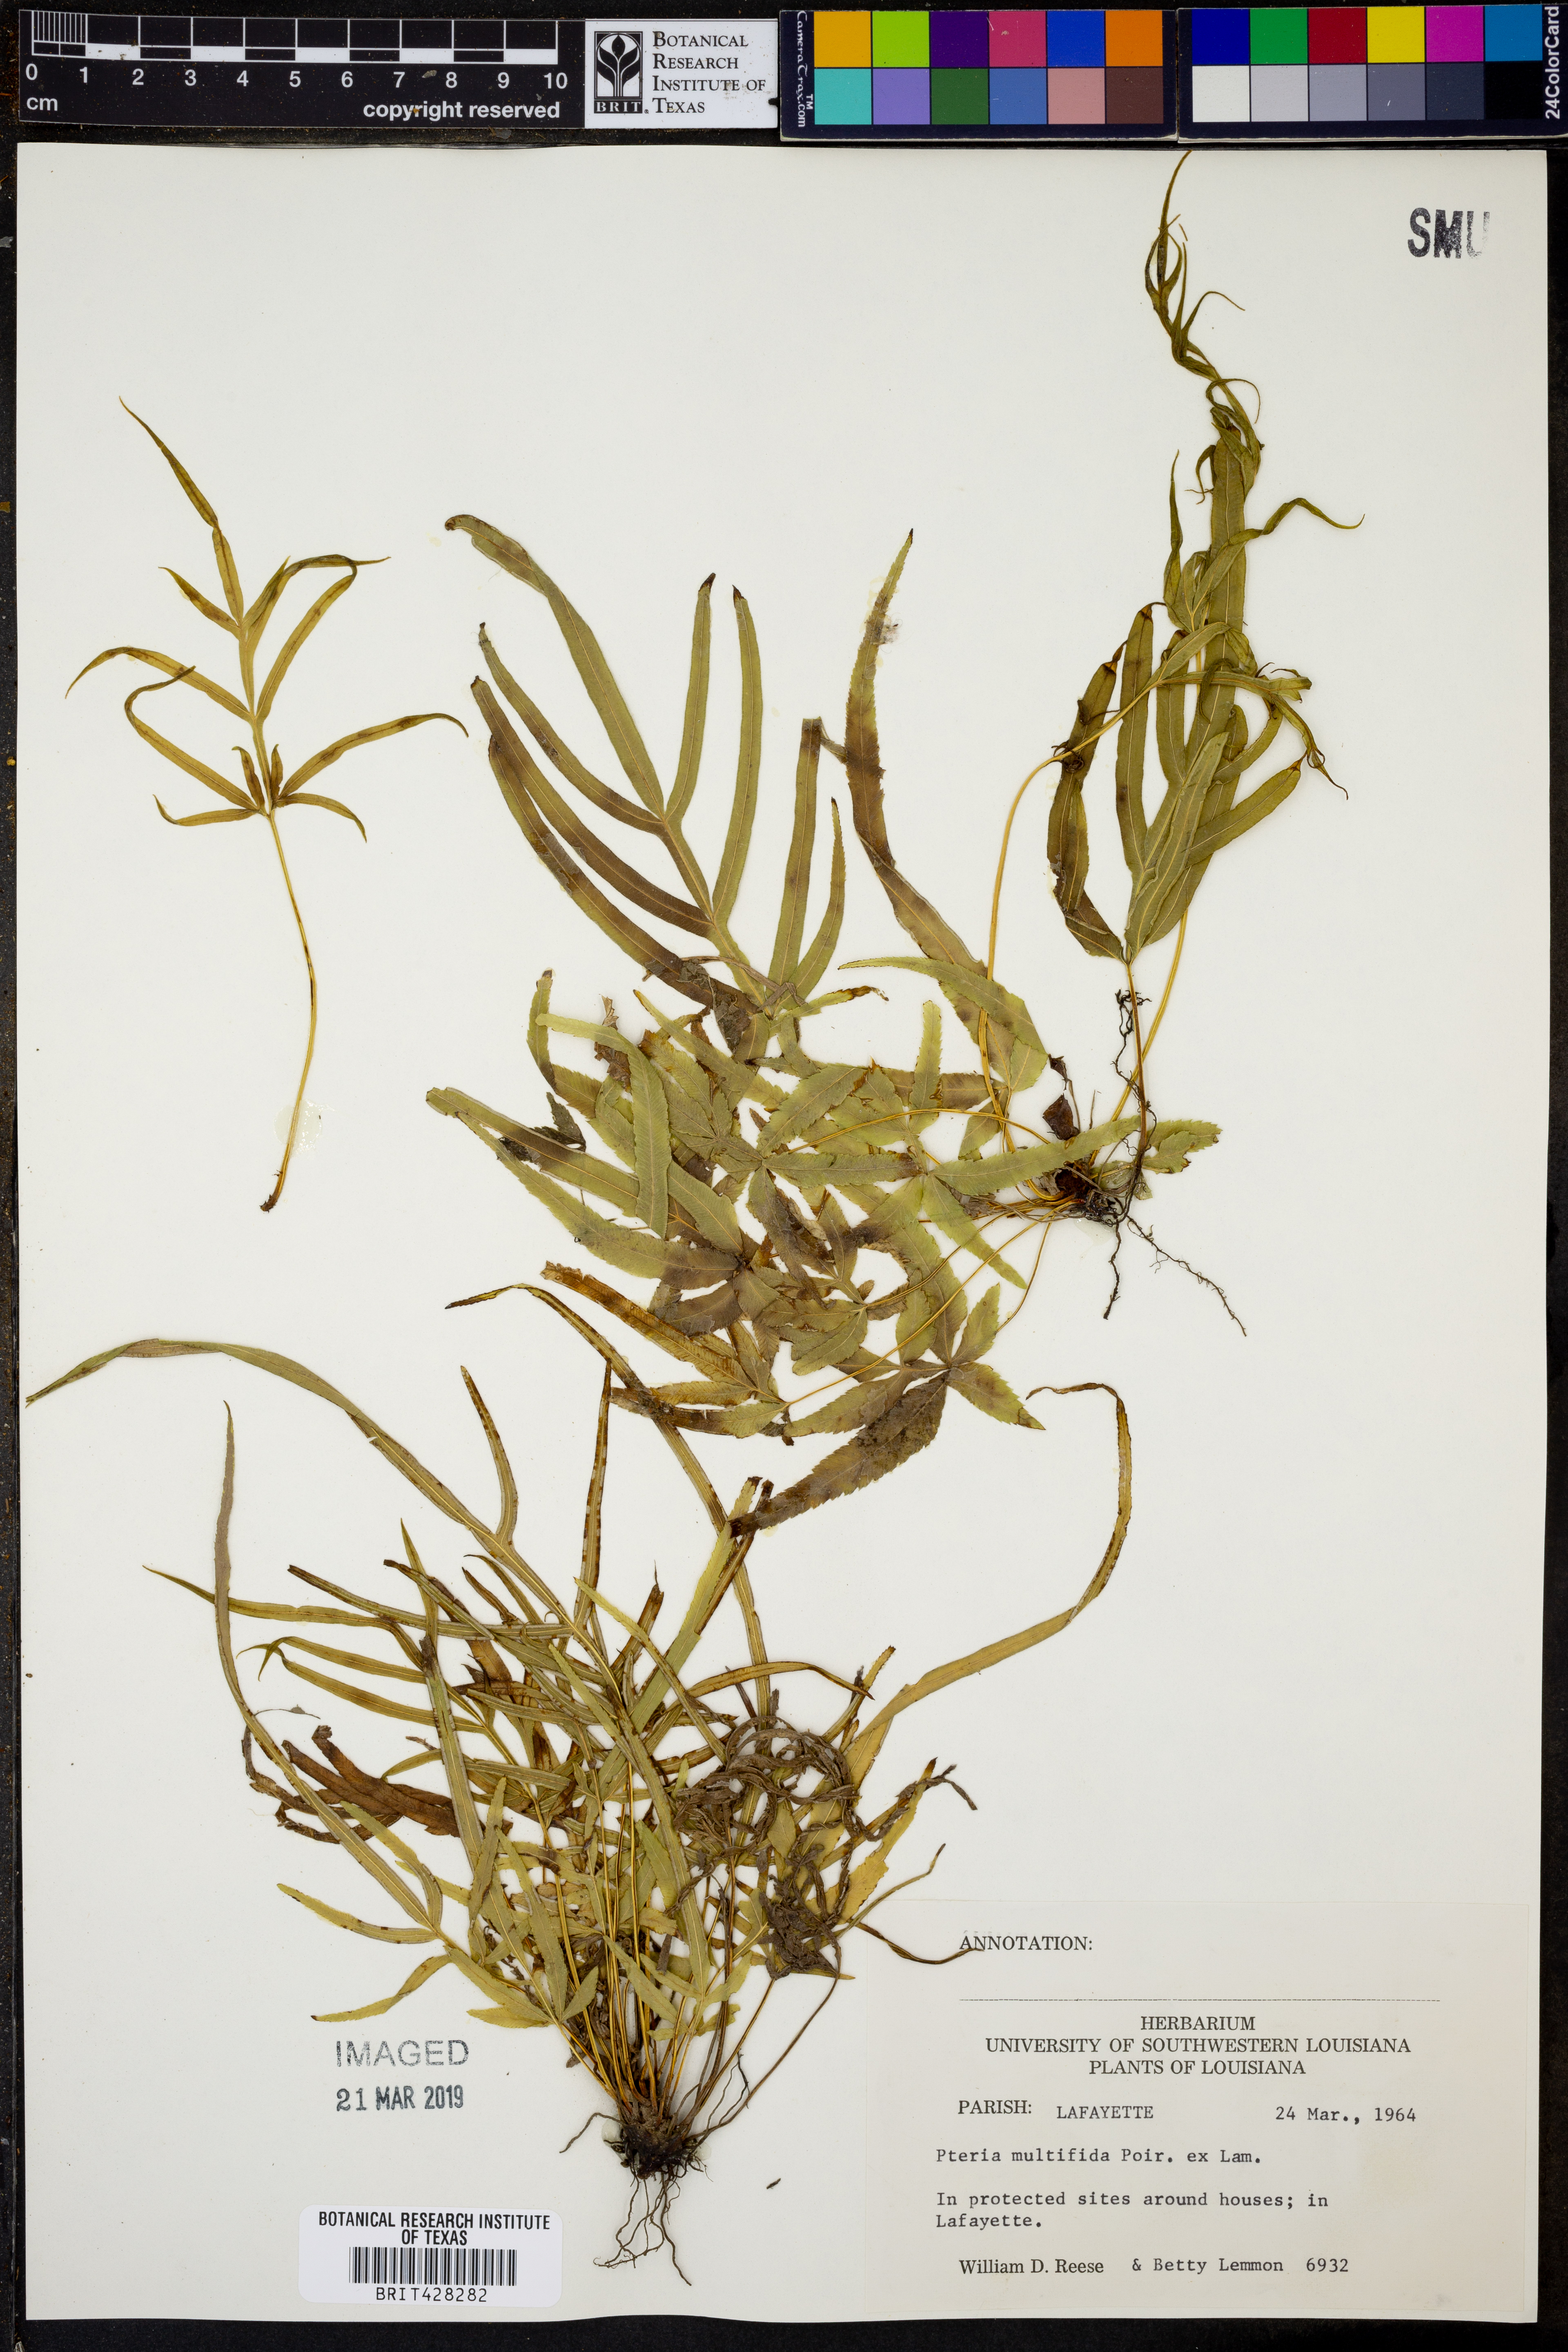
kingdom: Plantae
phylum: Tracheophyta
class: Polypodiopsida
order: Polypodiales
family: Pteridaceae
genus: Pteris
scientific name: Pteris multifida
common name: Spider brake
